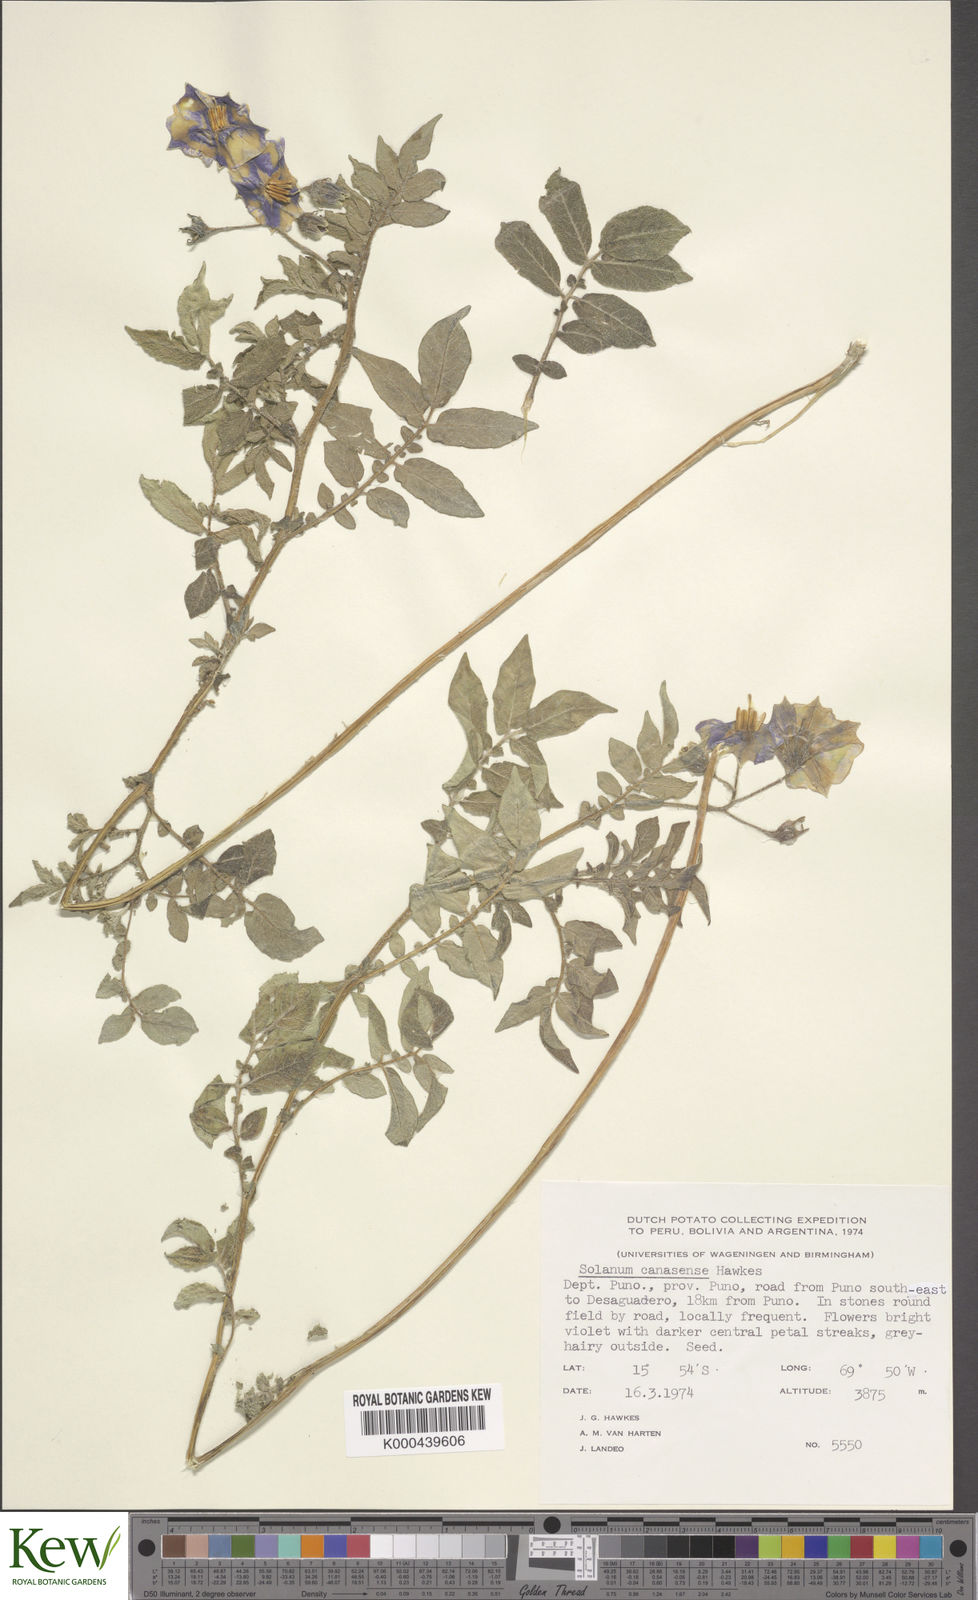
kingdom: Plantae
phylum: Tracheophyta
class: Magnoliopsida
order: Solanales
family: Solanaceae
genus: Solanum
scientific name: Solanum candolleanum
